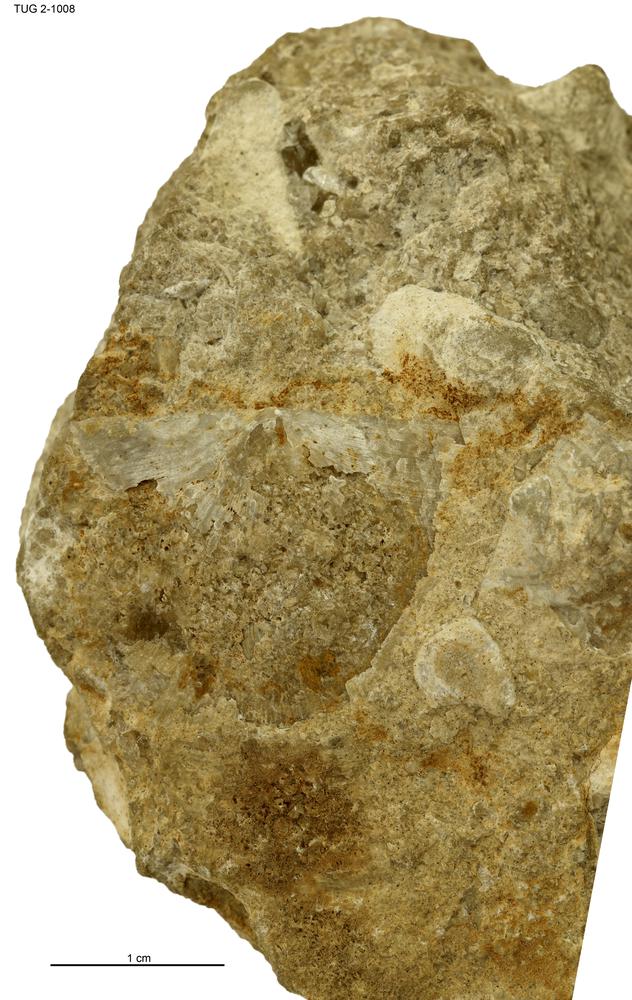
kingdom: Animalia
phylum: Brachiopoda
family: Strophomenidae
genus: Gunnarella
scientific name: Gunnarella Strophomena corrugata
